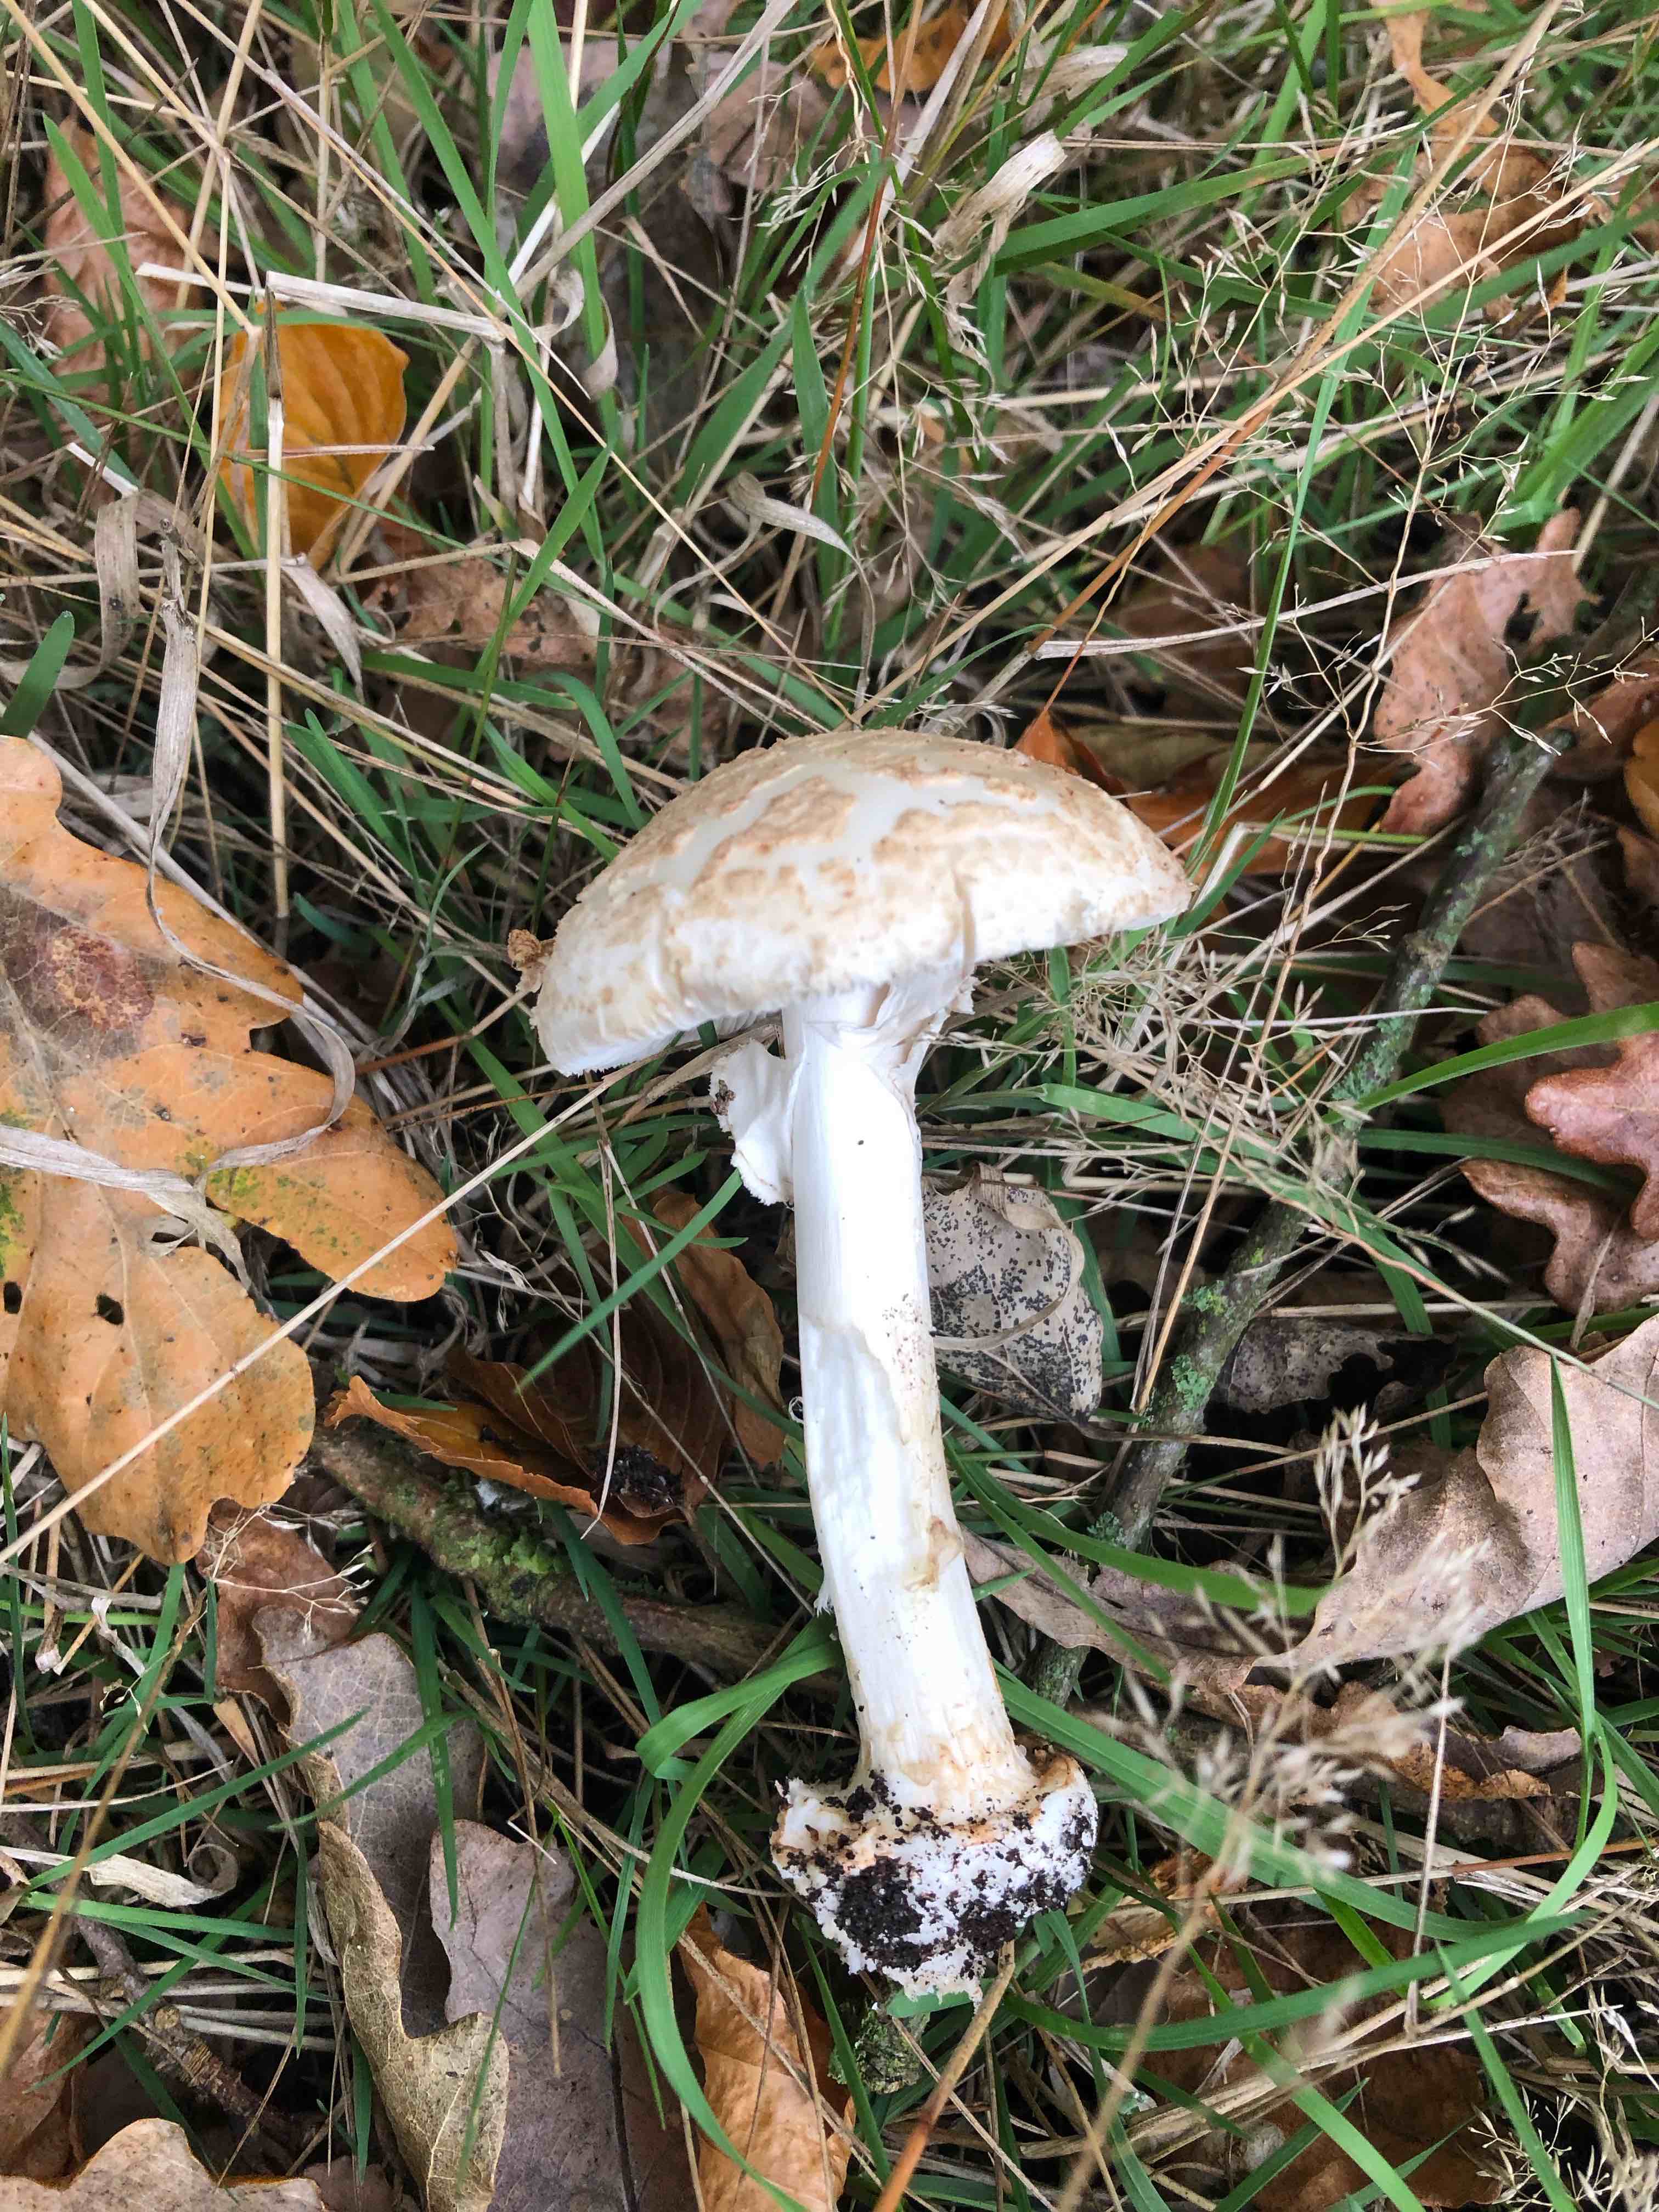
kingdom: Fungi
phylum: Basidiomycota
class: Agaricomycetes
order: Agaricales
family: Amanitaceae
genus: Amanita
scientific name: Amanita citrina
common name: kugleknoldet fluesvamp
